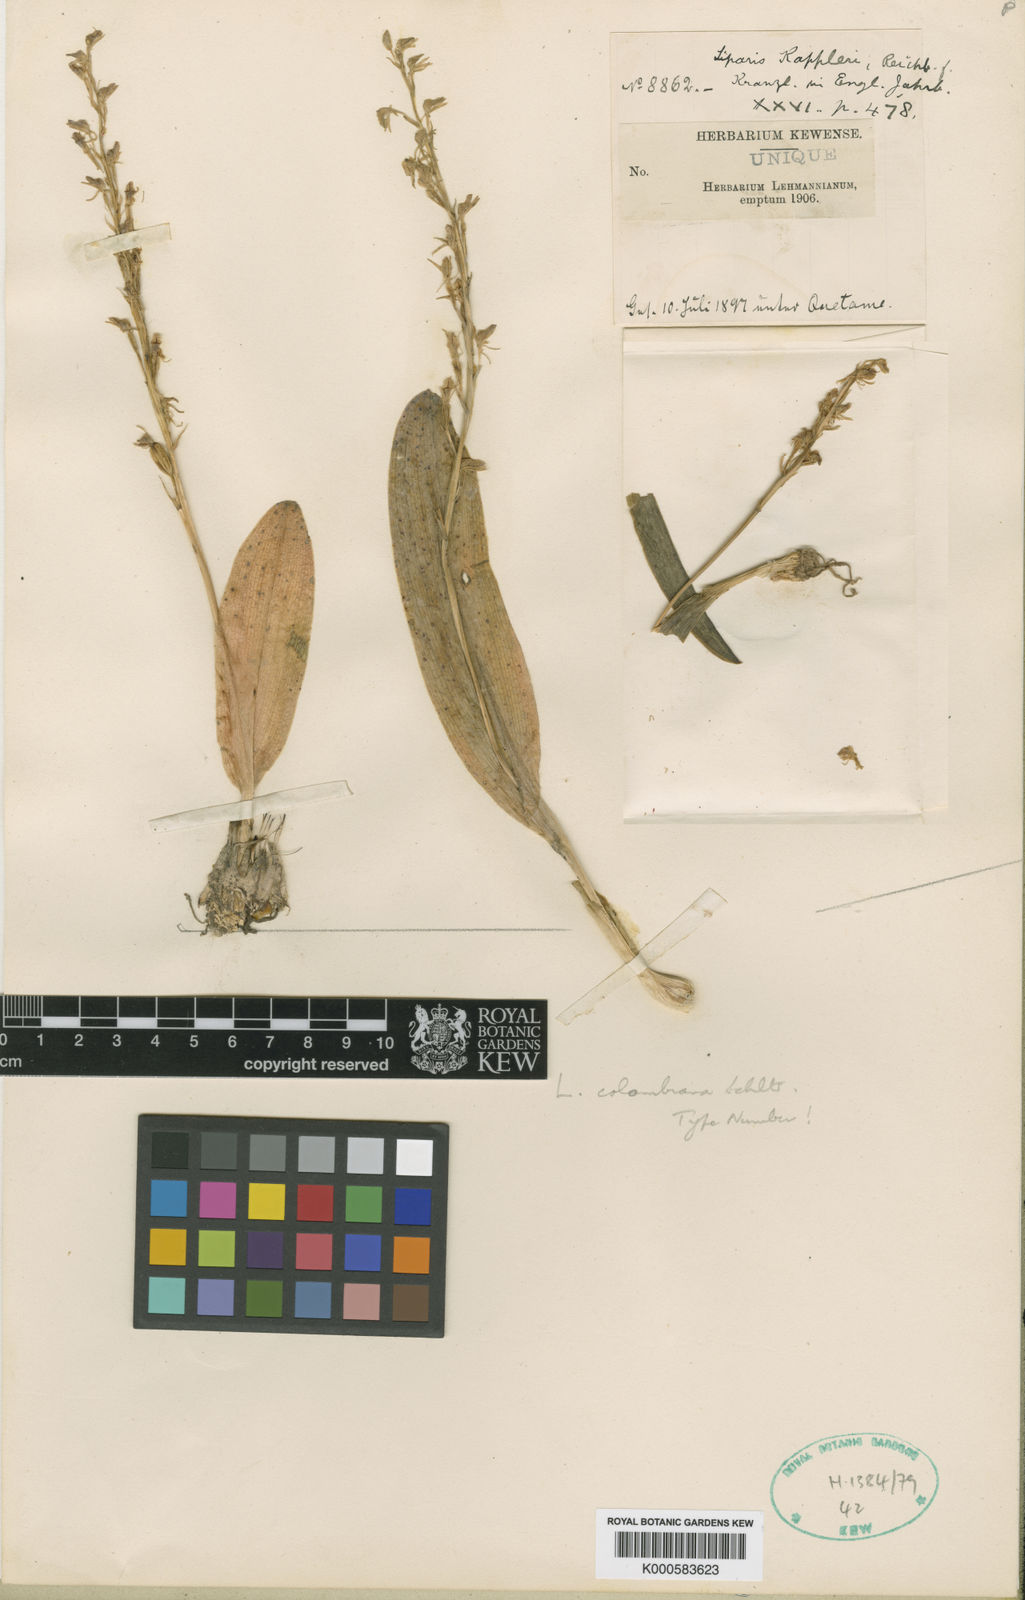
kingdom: Plantae
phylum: Tracheophyta
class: Liliopsida
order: Asparagales
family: Orchidaceae
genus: Liparis
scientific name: Liparis jamaicensis
